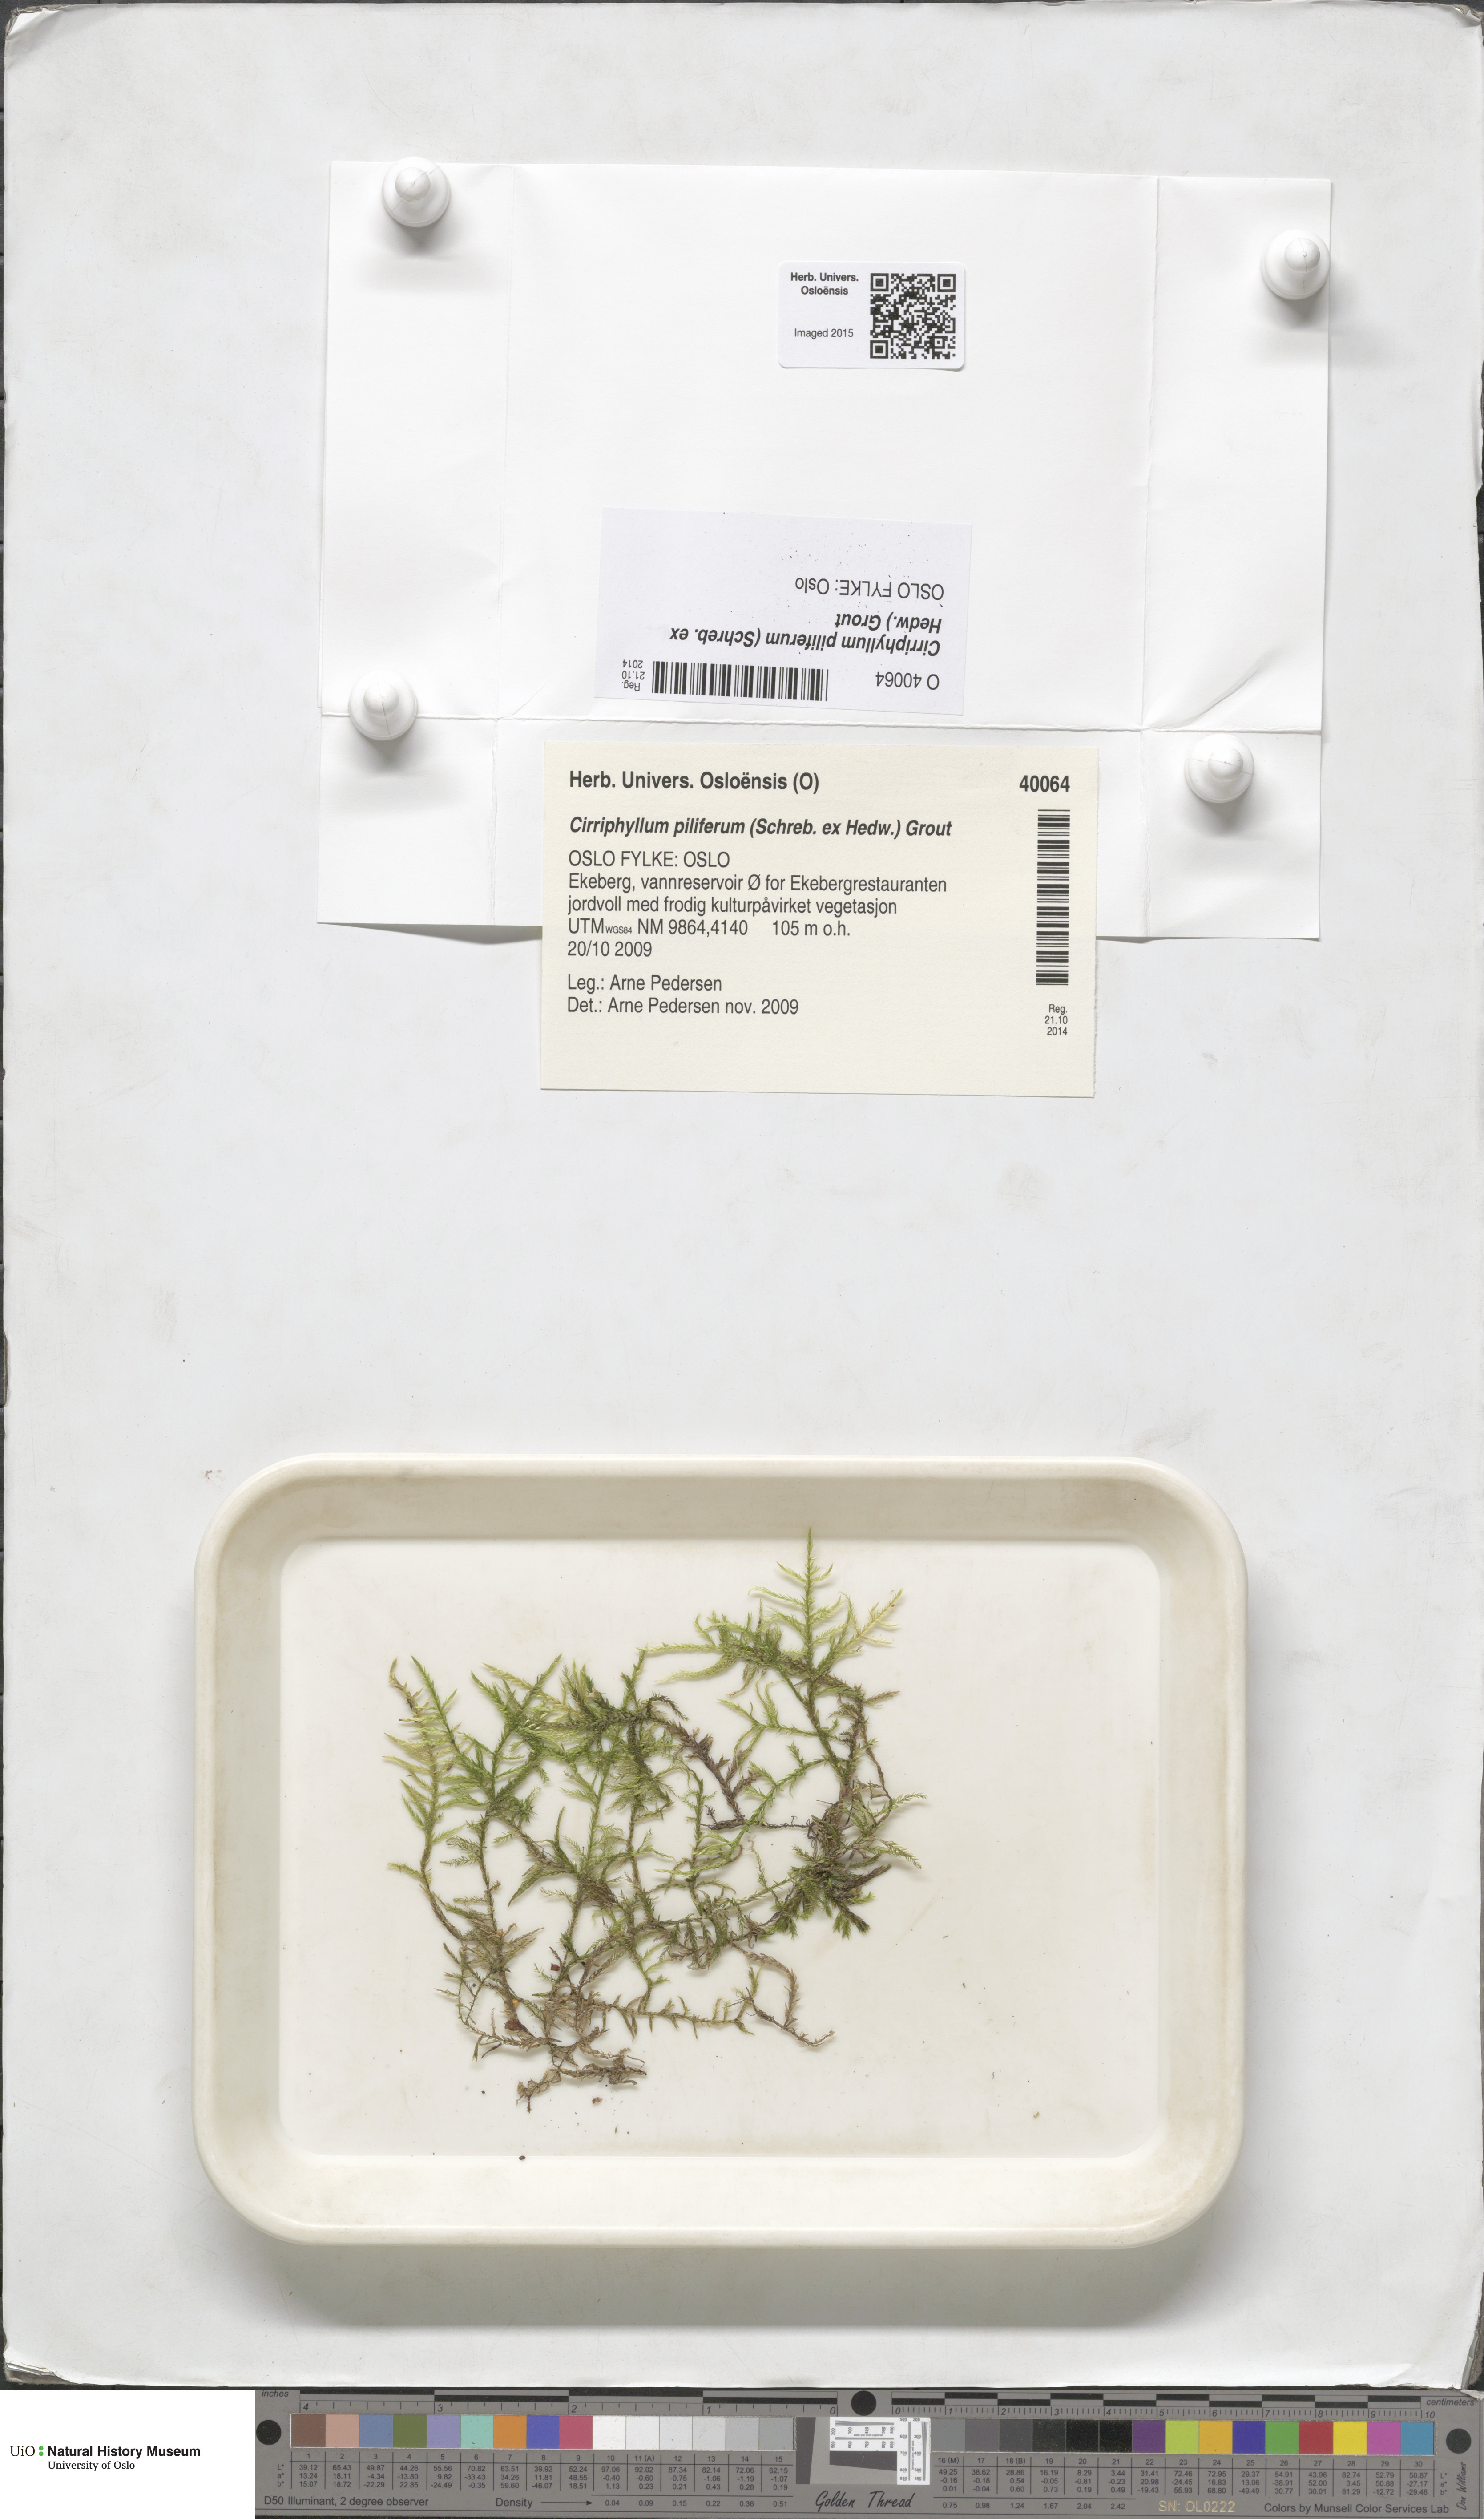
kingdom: Plantae
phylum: Bryophyta
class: Bryopsida
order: Hypnales
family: Brachytheciaceae
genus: Cirriphyllum
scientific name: Cirriphyllum piliferum
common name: Hair-pointed moss
